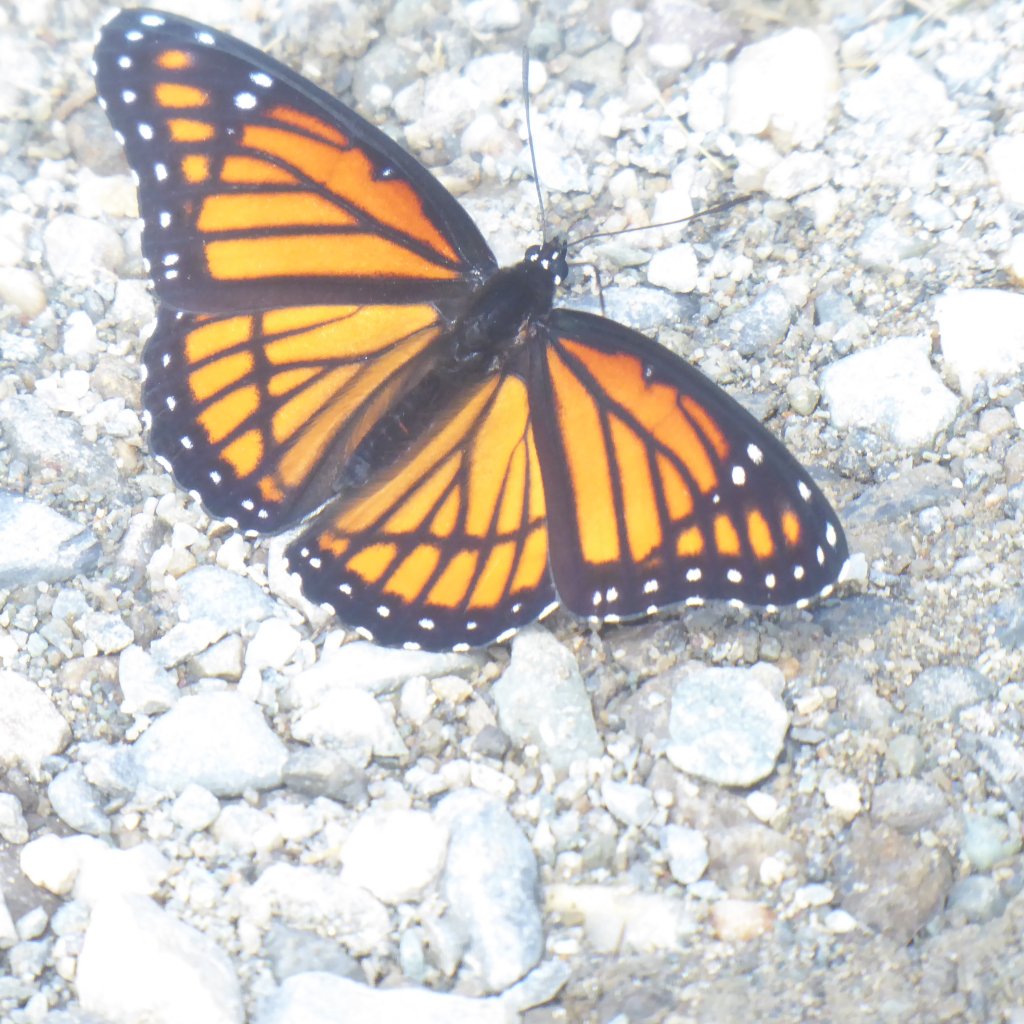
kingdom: Animalia
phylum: Arthropoda
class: Insecta
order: Lepidoptera
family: Nymphalidae
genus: Limenitis
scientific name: Limenitis archippus
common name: Viceroy
